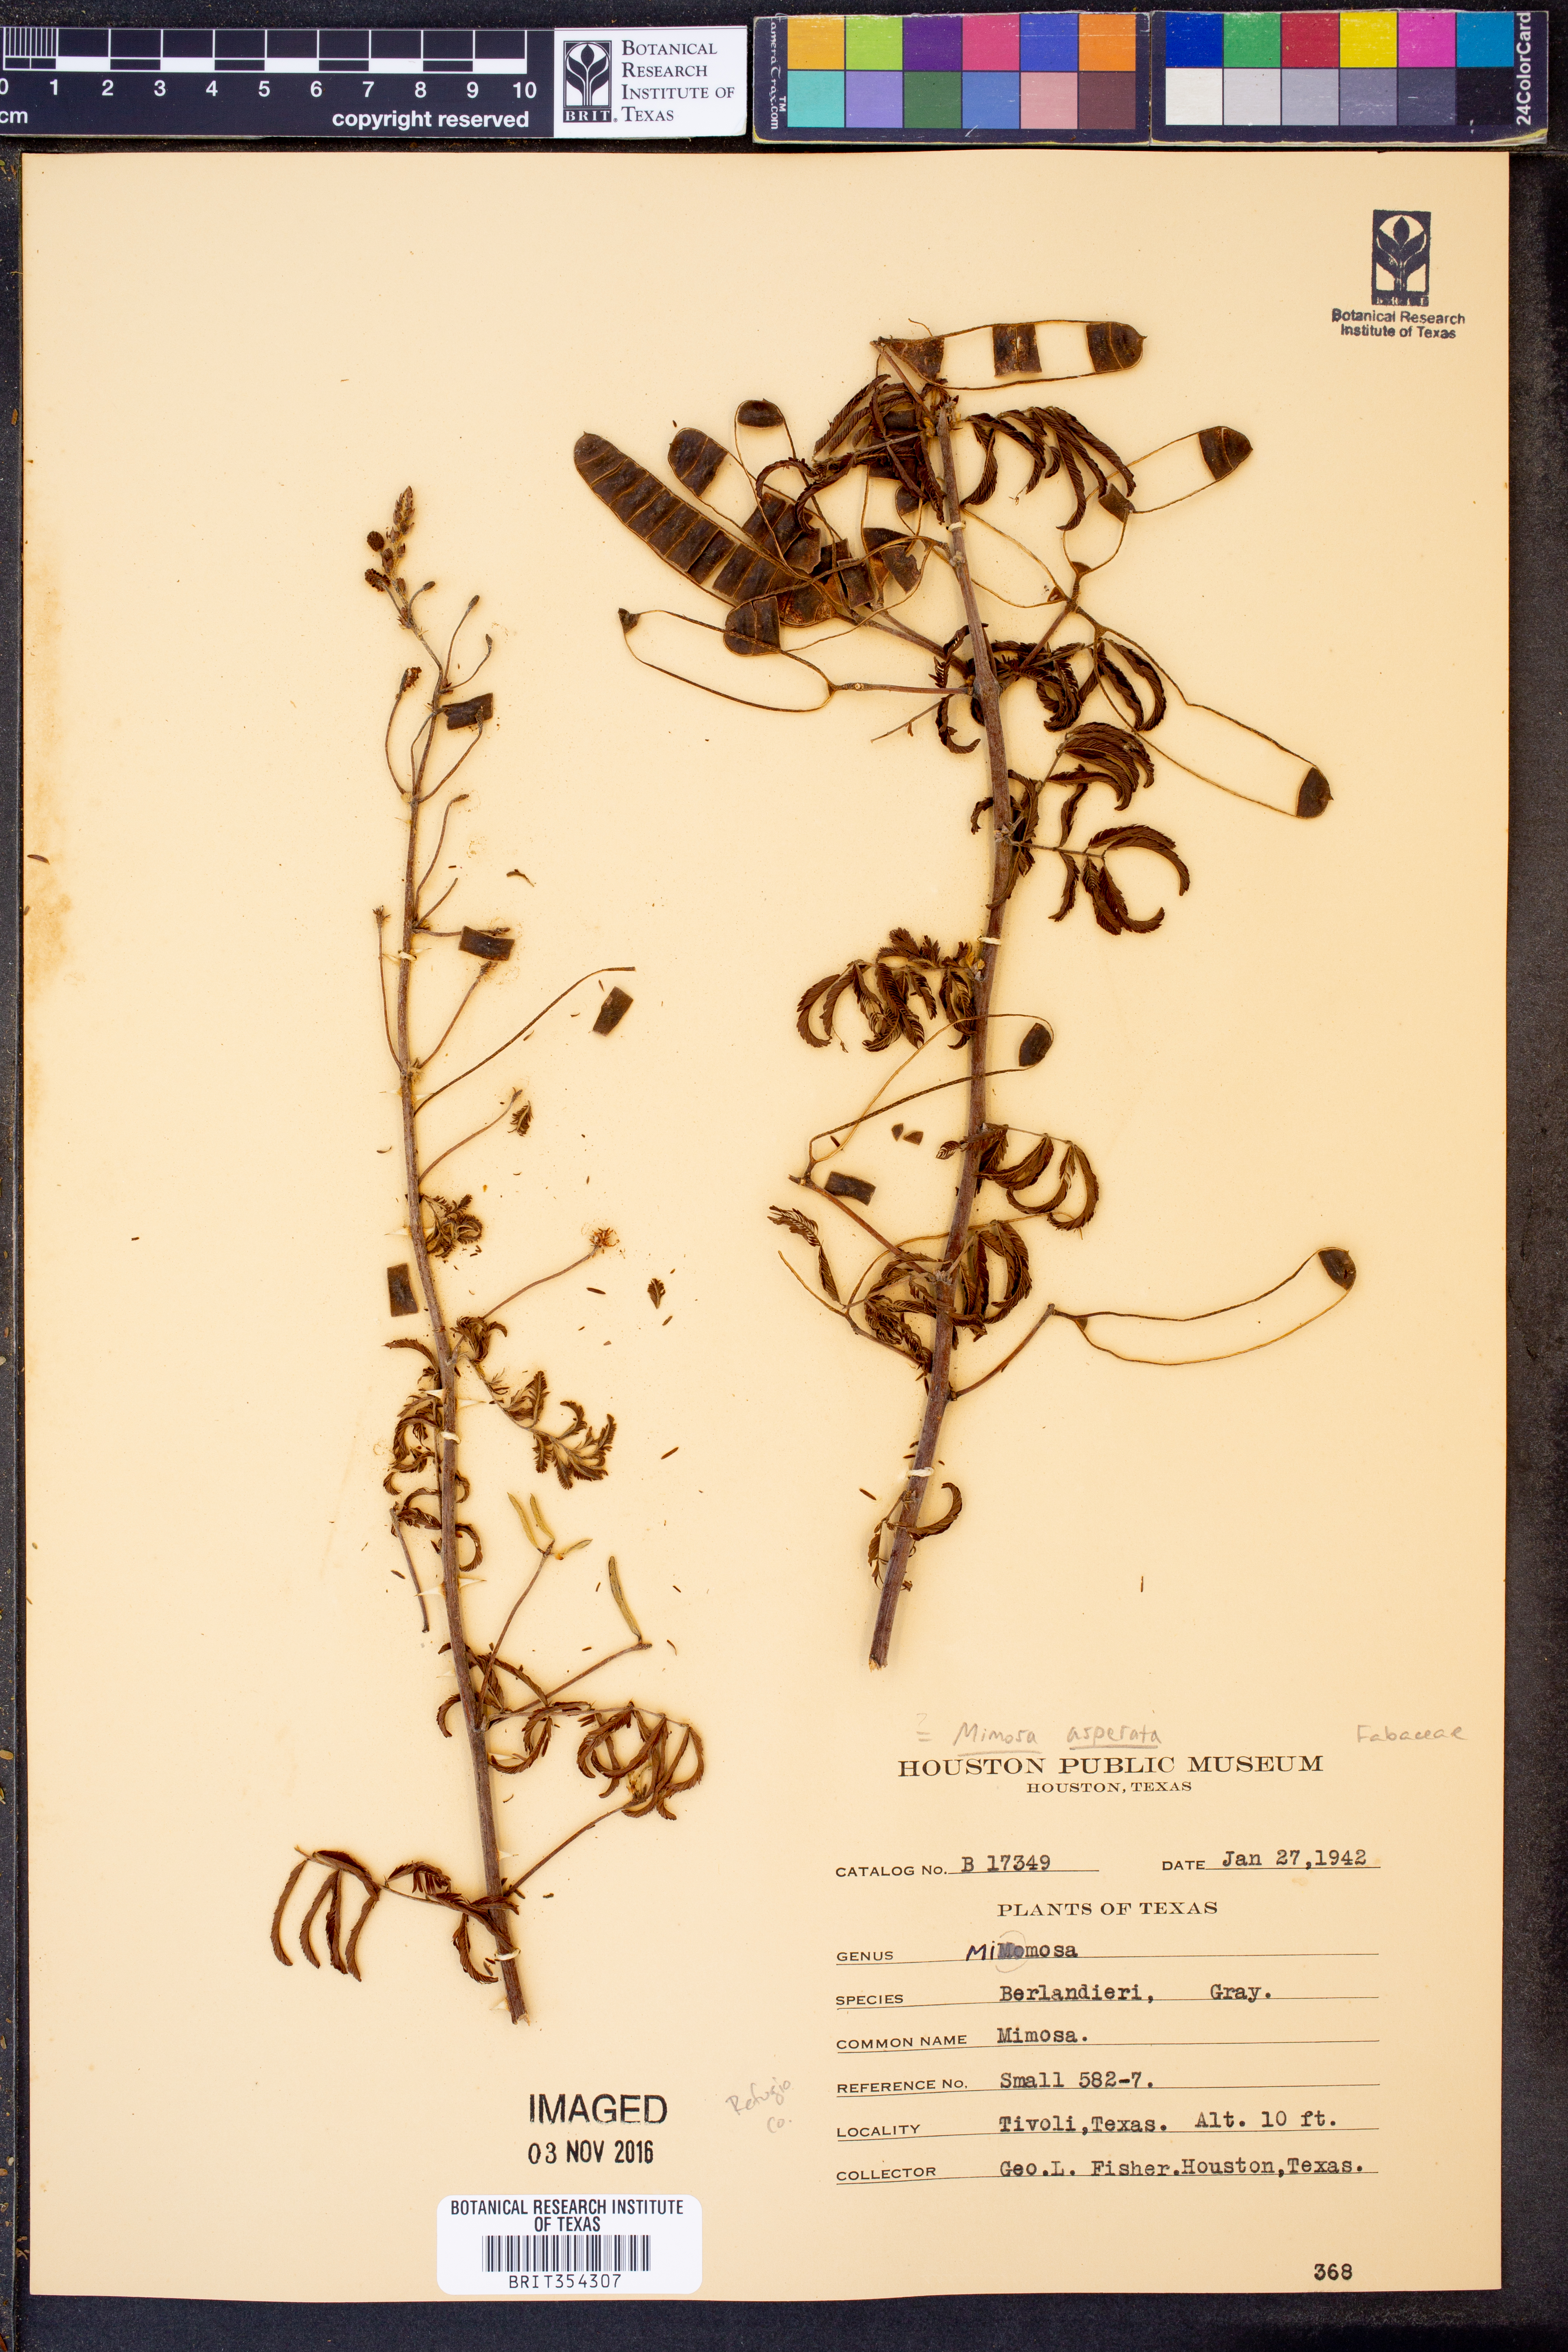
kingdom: Plantae
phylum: Tracheophyta
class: Magnoliopsida
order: Fabales
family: Fabaceae
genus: Mimosa
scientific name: Mimosa pigra
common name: Black mimosa
